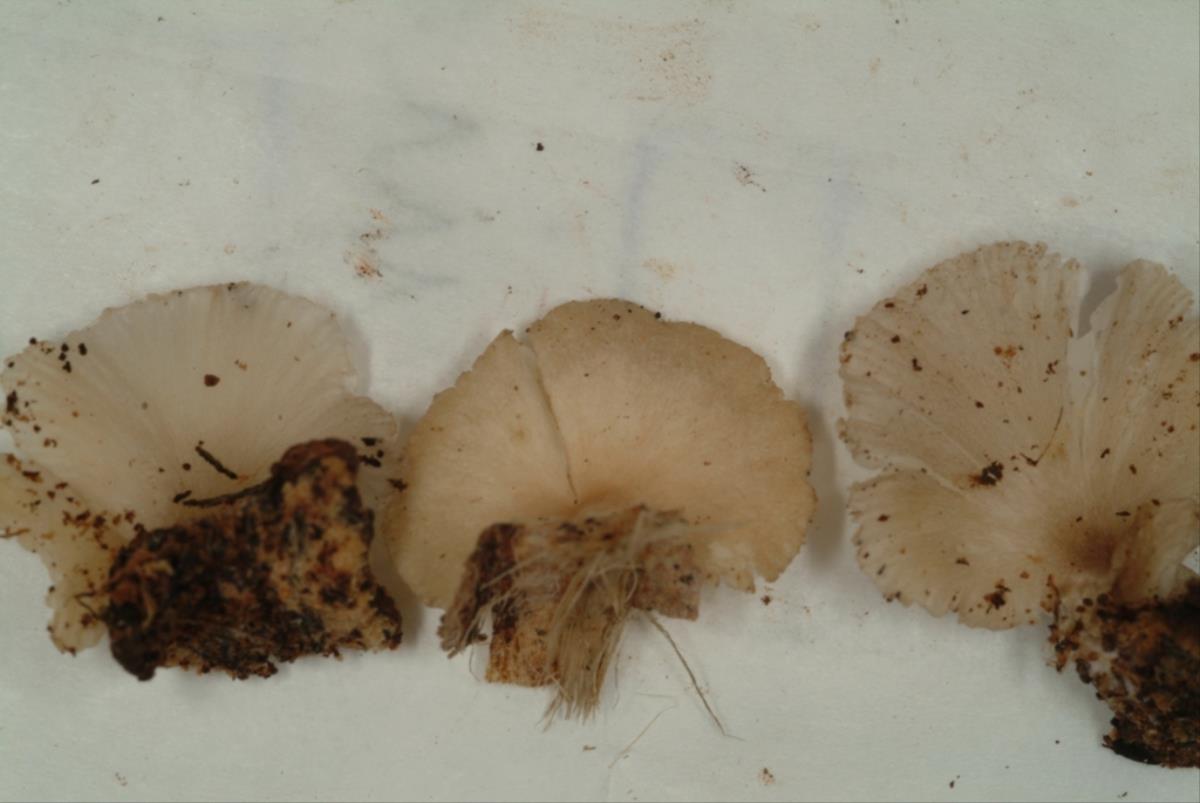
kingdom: Fungi
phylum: Basidiomycota
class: Agaricomycetes
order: Agaricales
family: Pleurotaceae
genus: Pleurotus
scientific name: Pleurotus djamor
